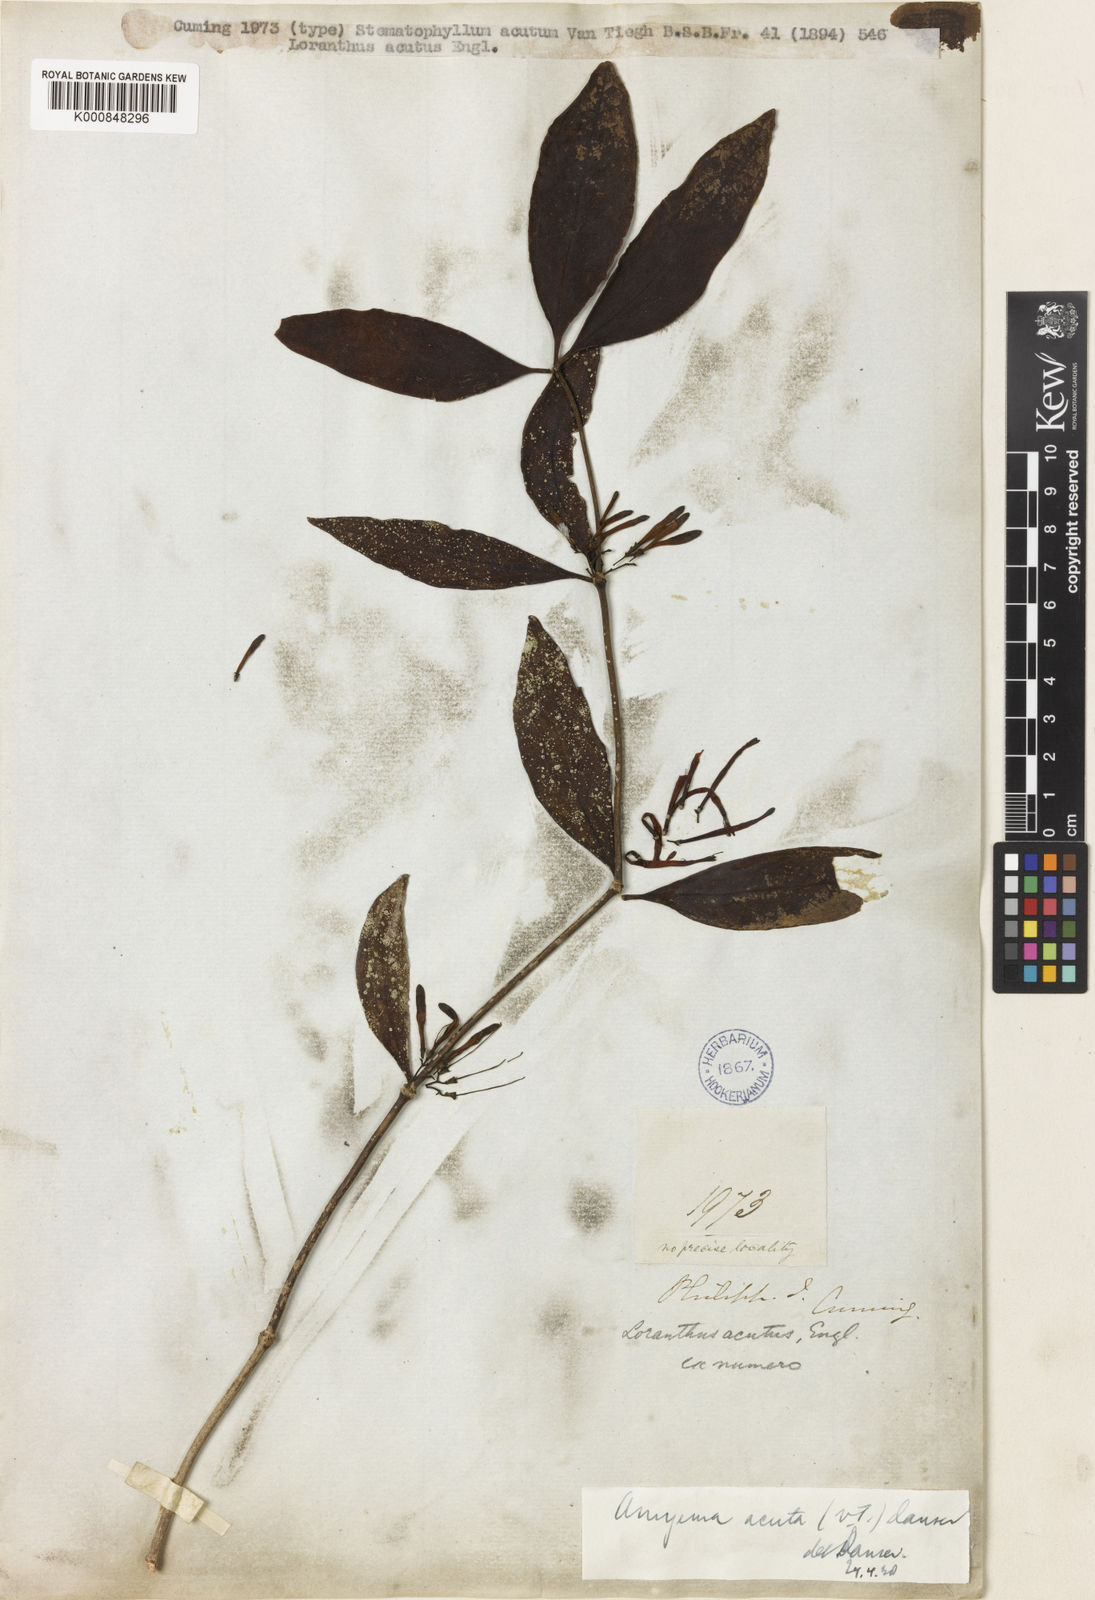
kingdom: Plantae
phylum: Tracheophyta
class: Magnoliopsida
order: Santalales
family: Loranthaceae
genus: Amyema
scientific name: Amyema acuta
